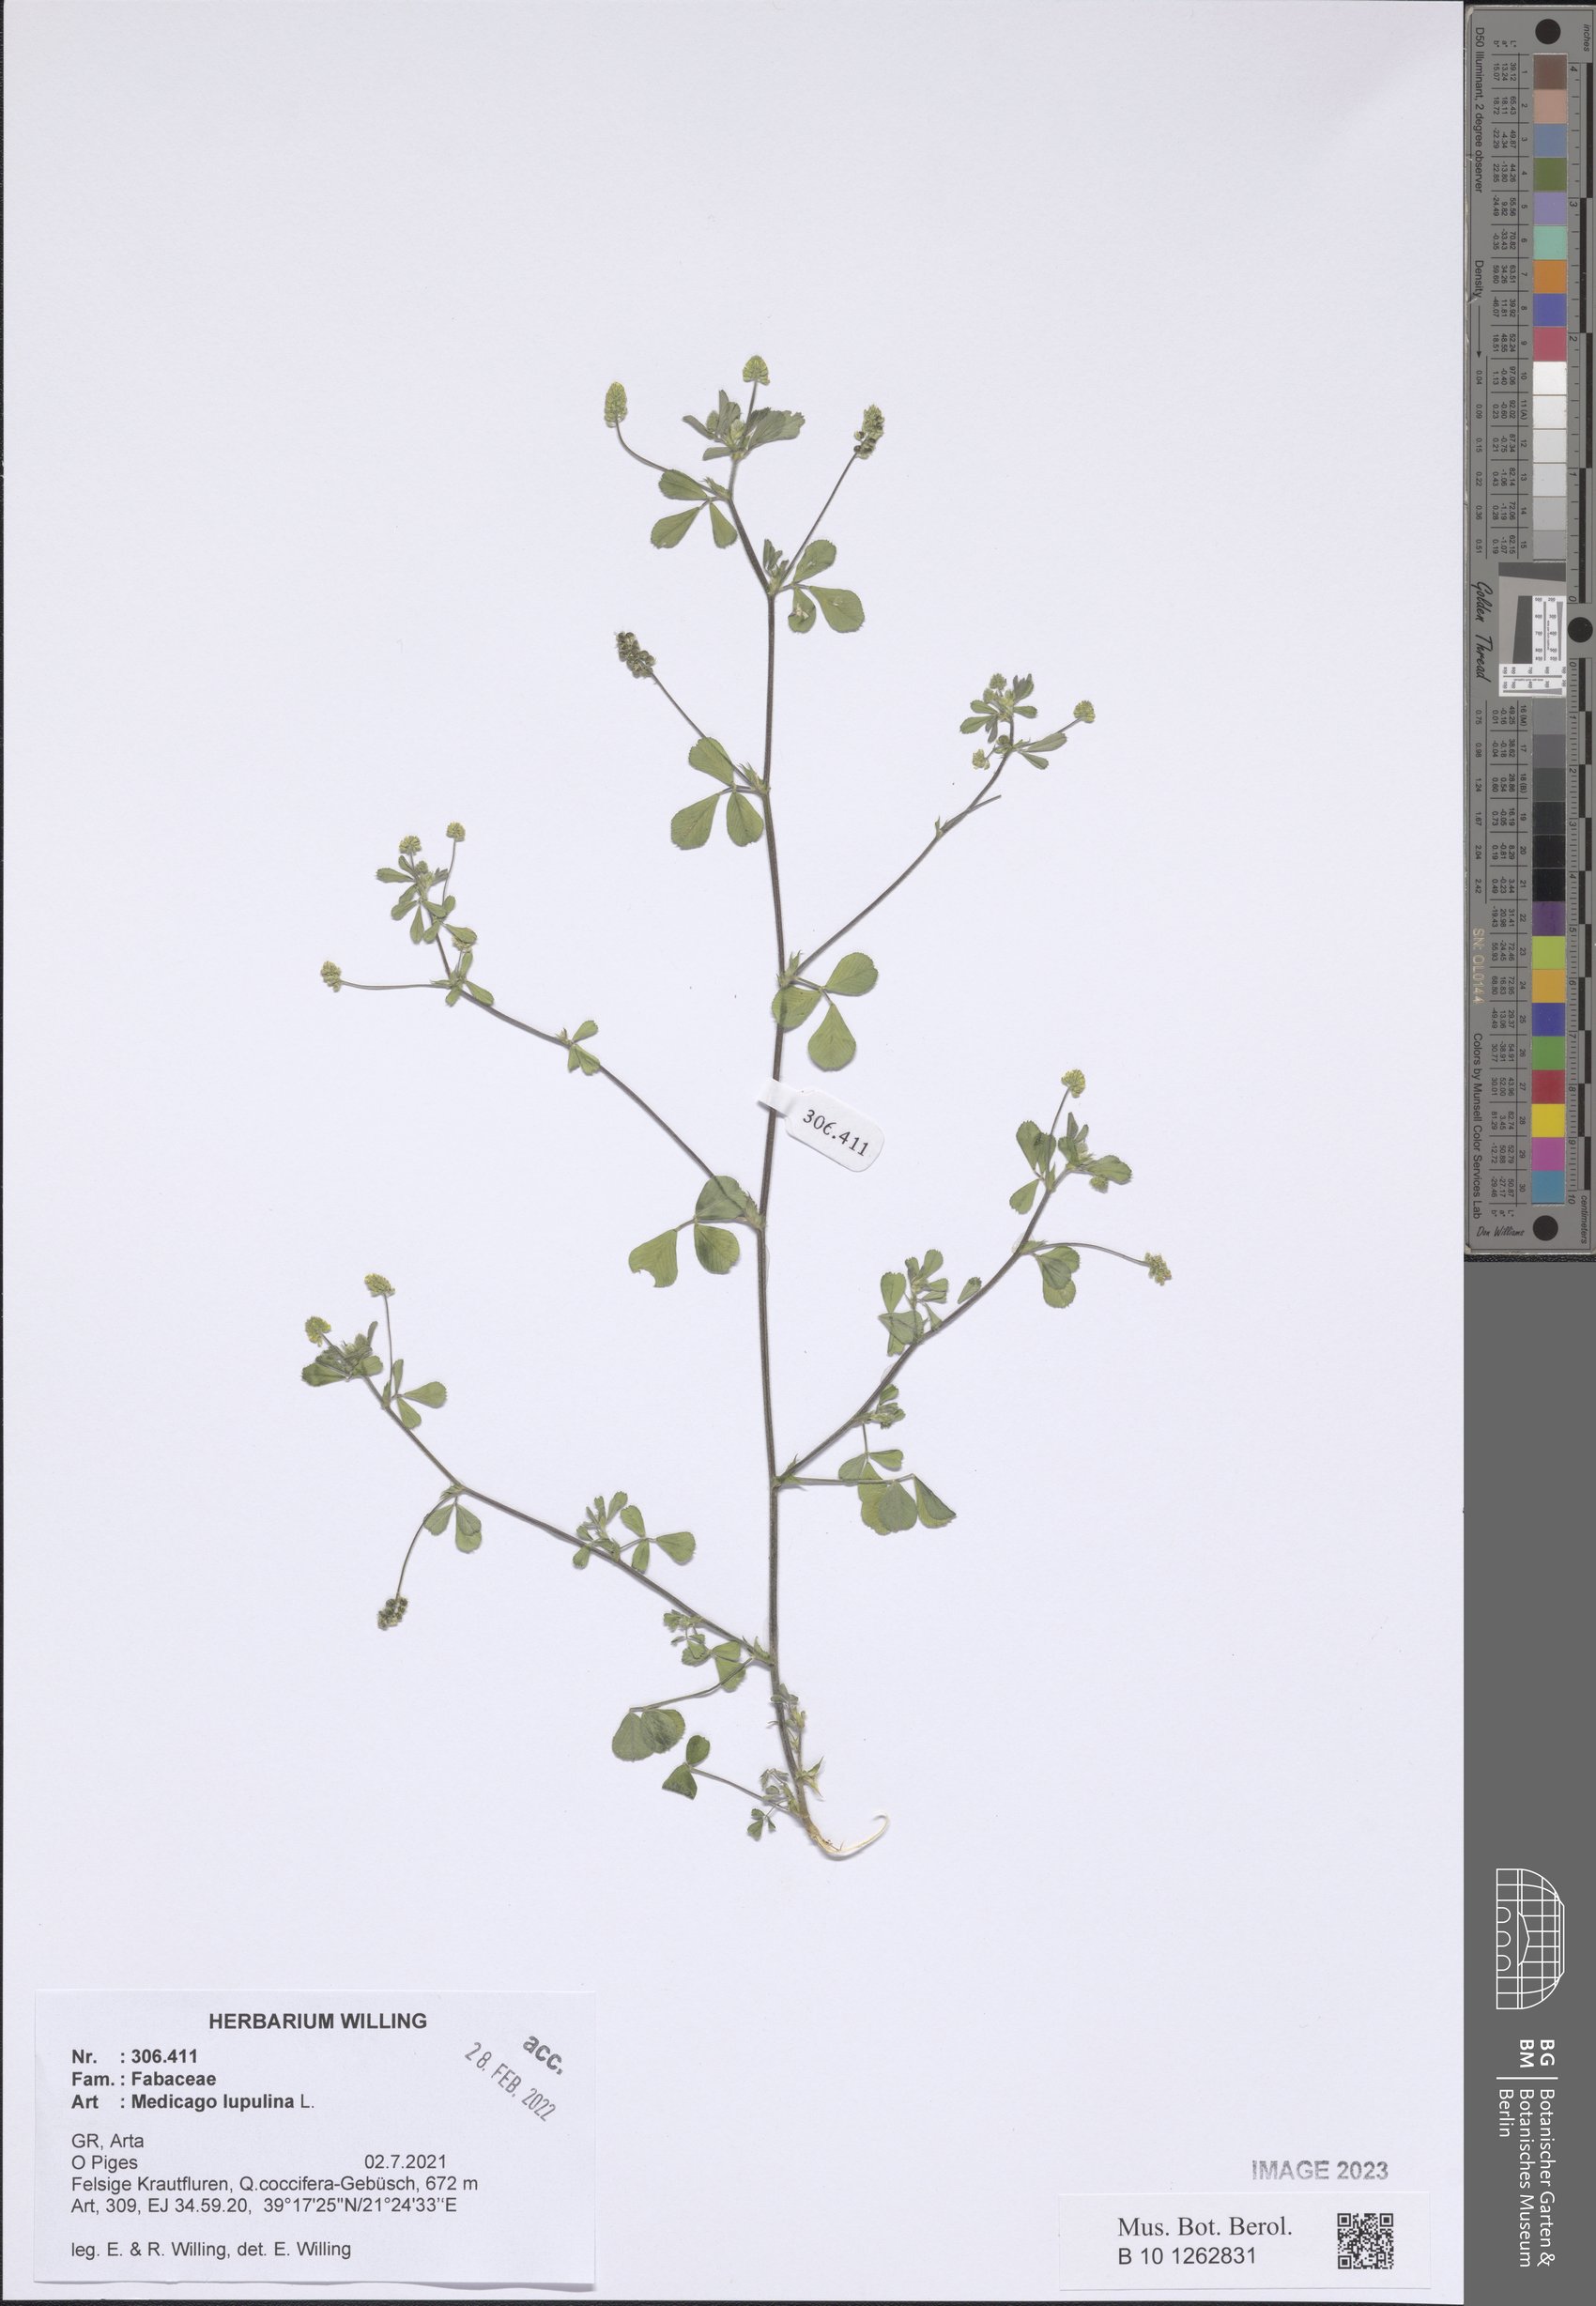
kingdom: Plantae
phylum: Tracheophyta
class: Magnoliopsida
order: Fabales
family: Fabaceae
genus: Medicago
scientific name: Medicago lupulina
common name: Black medick
